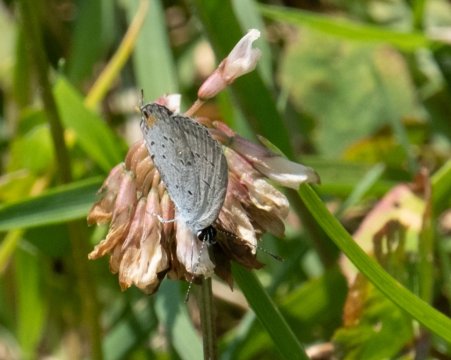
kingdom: Animalia
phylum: Arthropoda
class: Insecta
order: Lepidoptera
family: Lycaenidae
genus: Elkalyce
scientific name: Elkalyce comyntas
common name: Eastern Tailed-Blue
